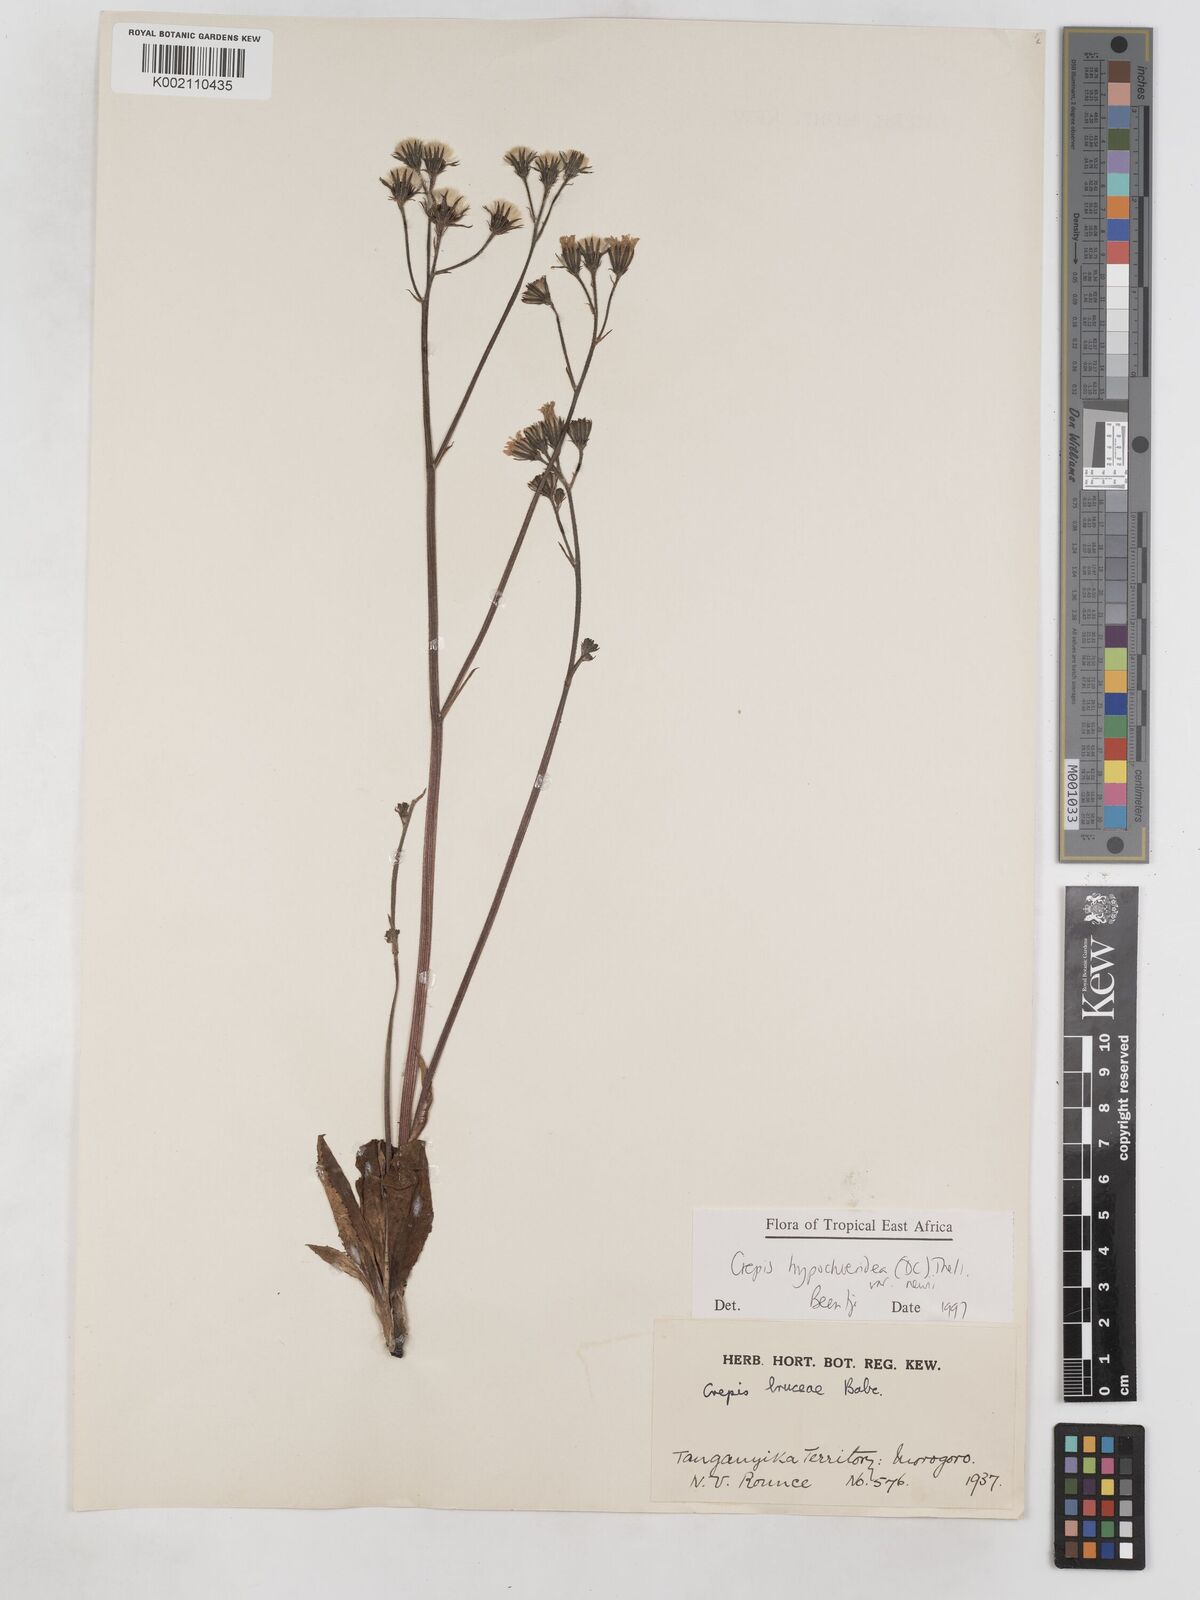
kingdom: Plantae
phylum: Tracheophyta
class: Magnoliopsida
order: Asterales
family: Asteraceae
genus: Crepis
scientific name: Crepis hypochoeridea
